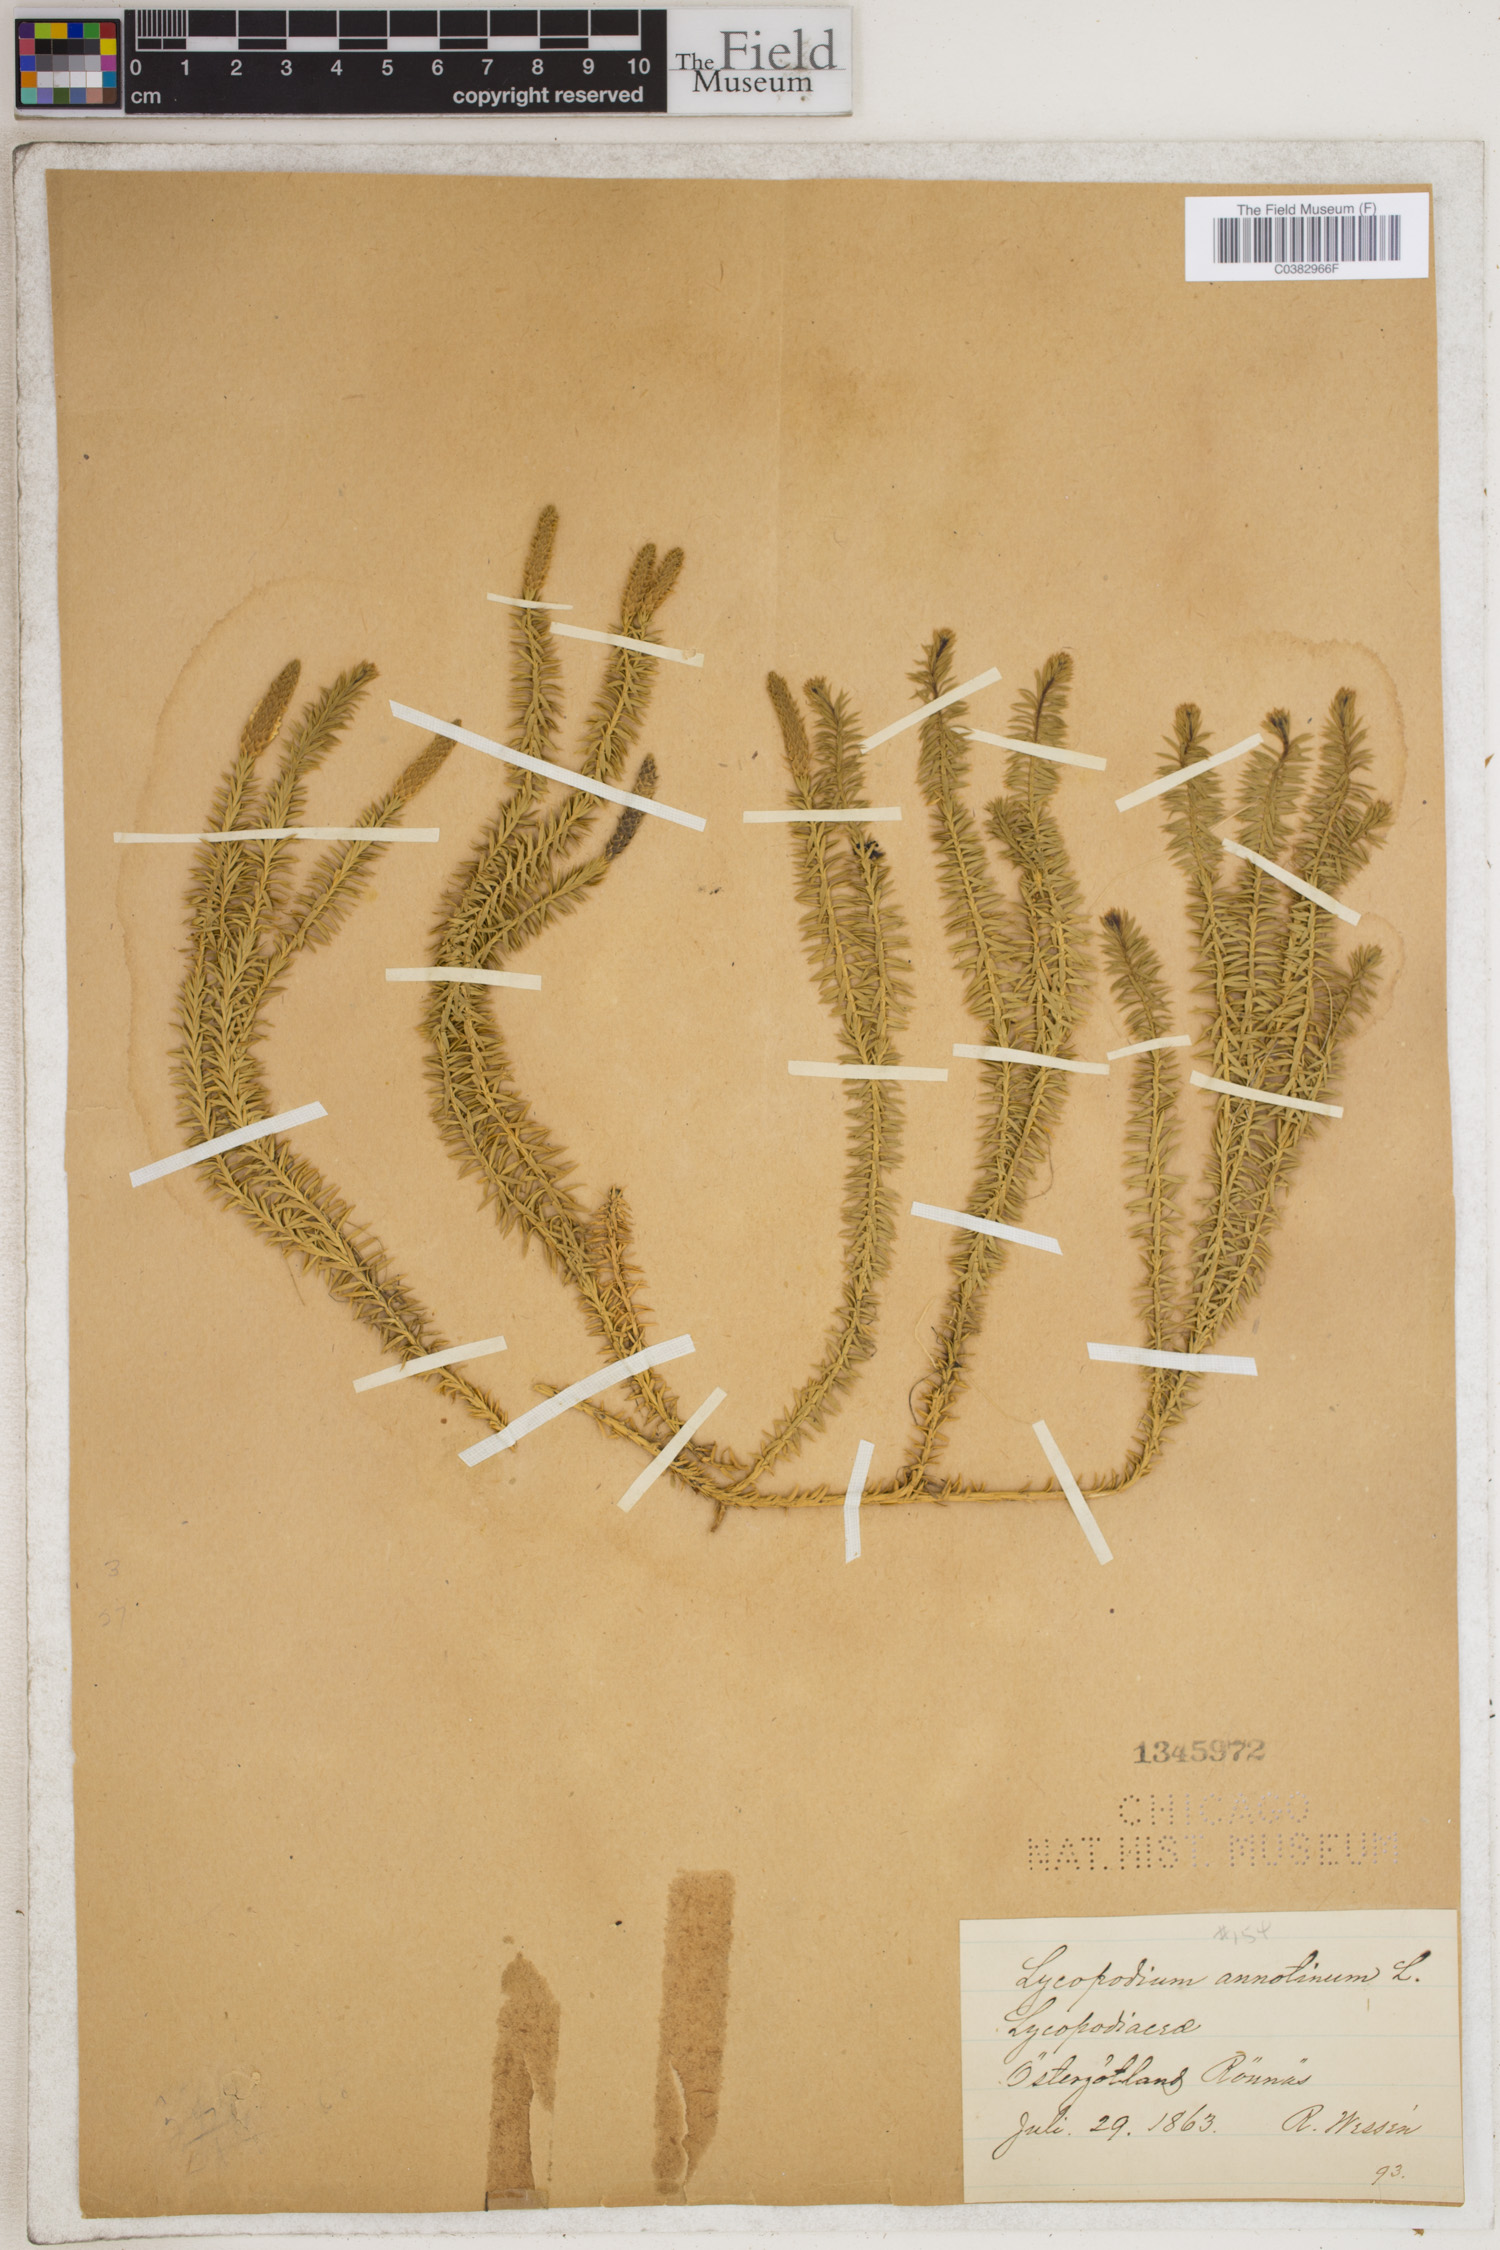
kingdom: Plantae
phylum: Tracheophyta
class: Lycopodiopsida
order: Lycopodiales
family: Lycopodiaceae
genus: Spinulum
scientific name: Spinulum annotinum
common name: Interrupted club-moss
